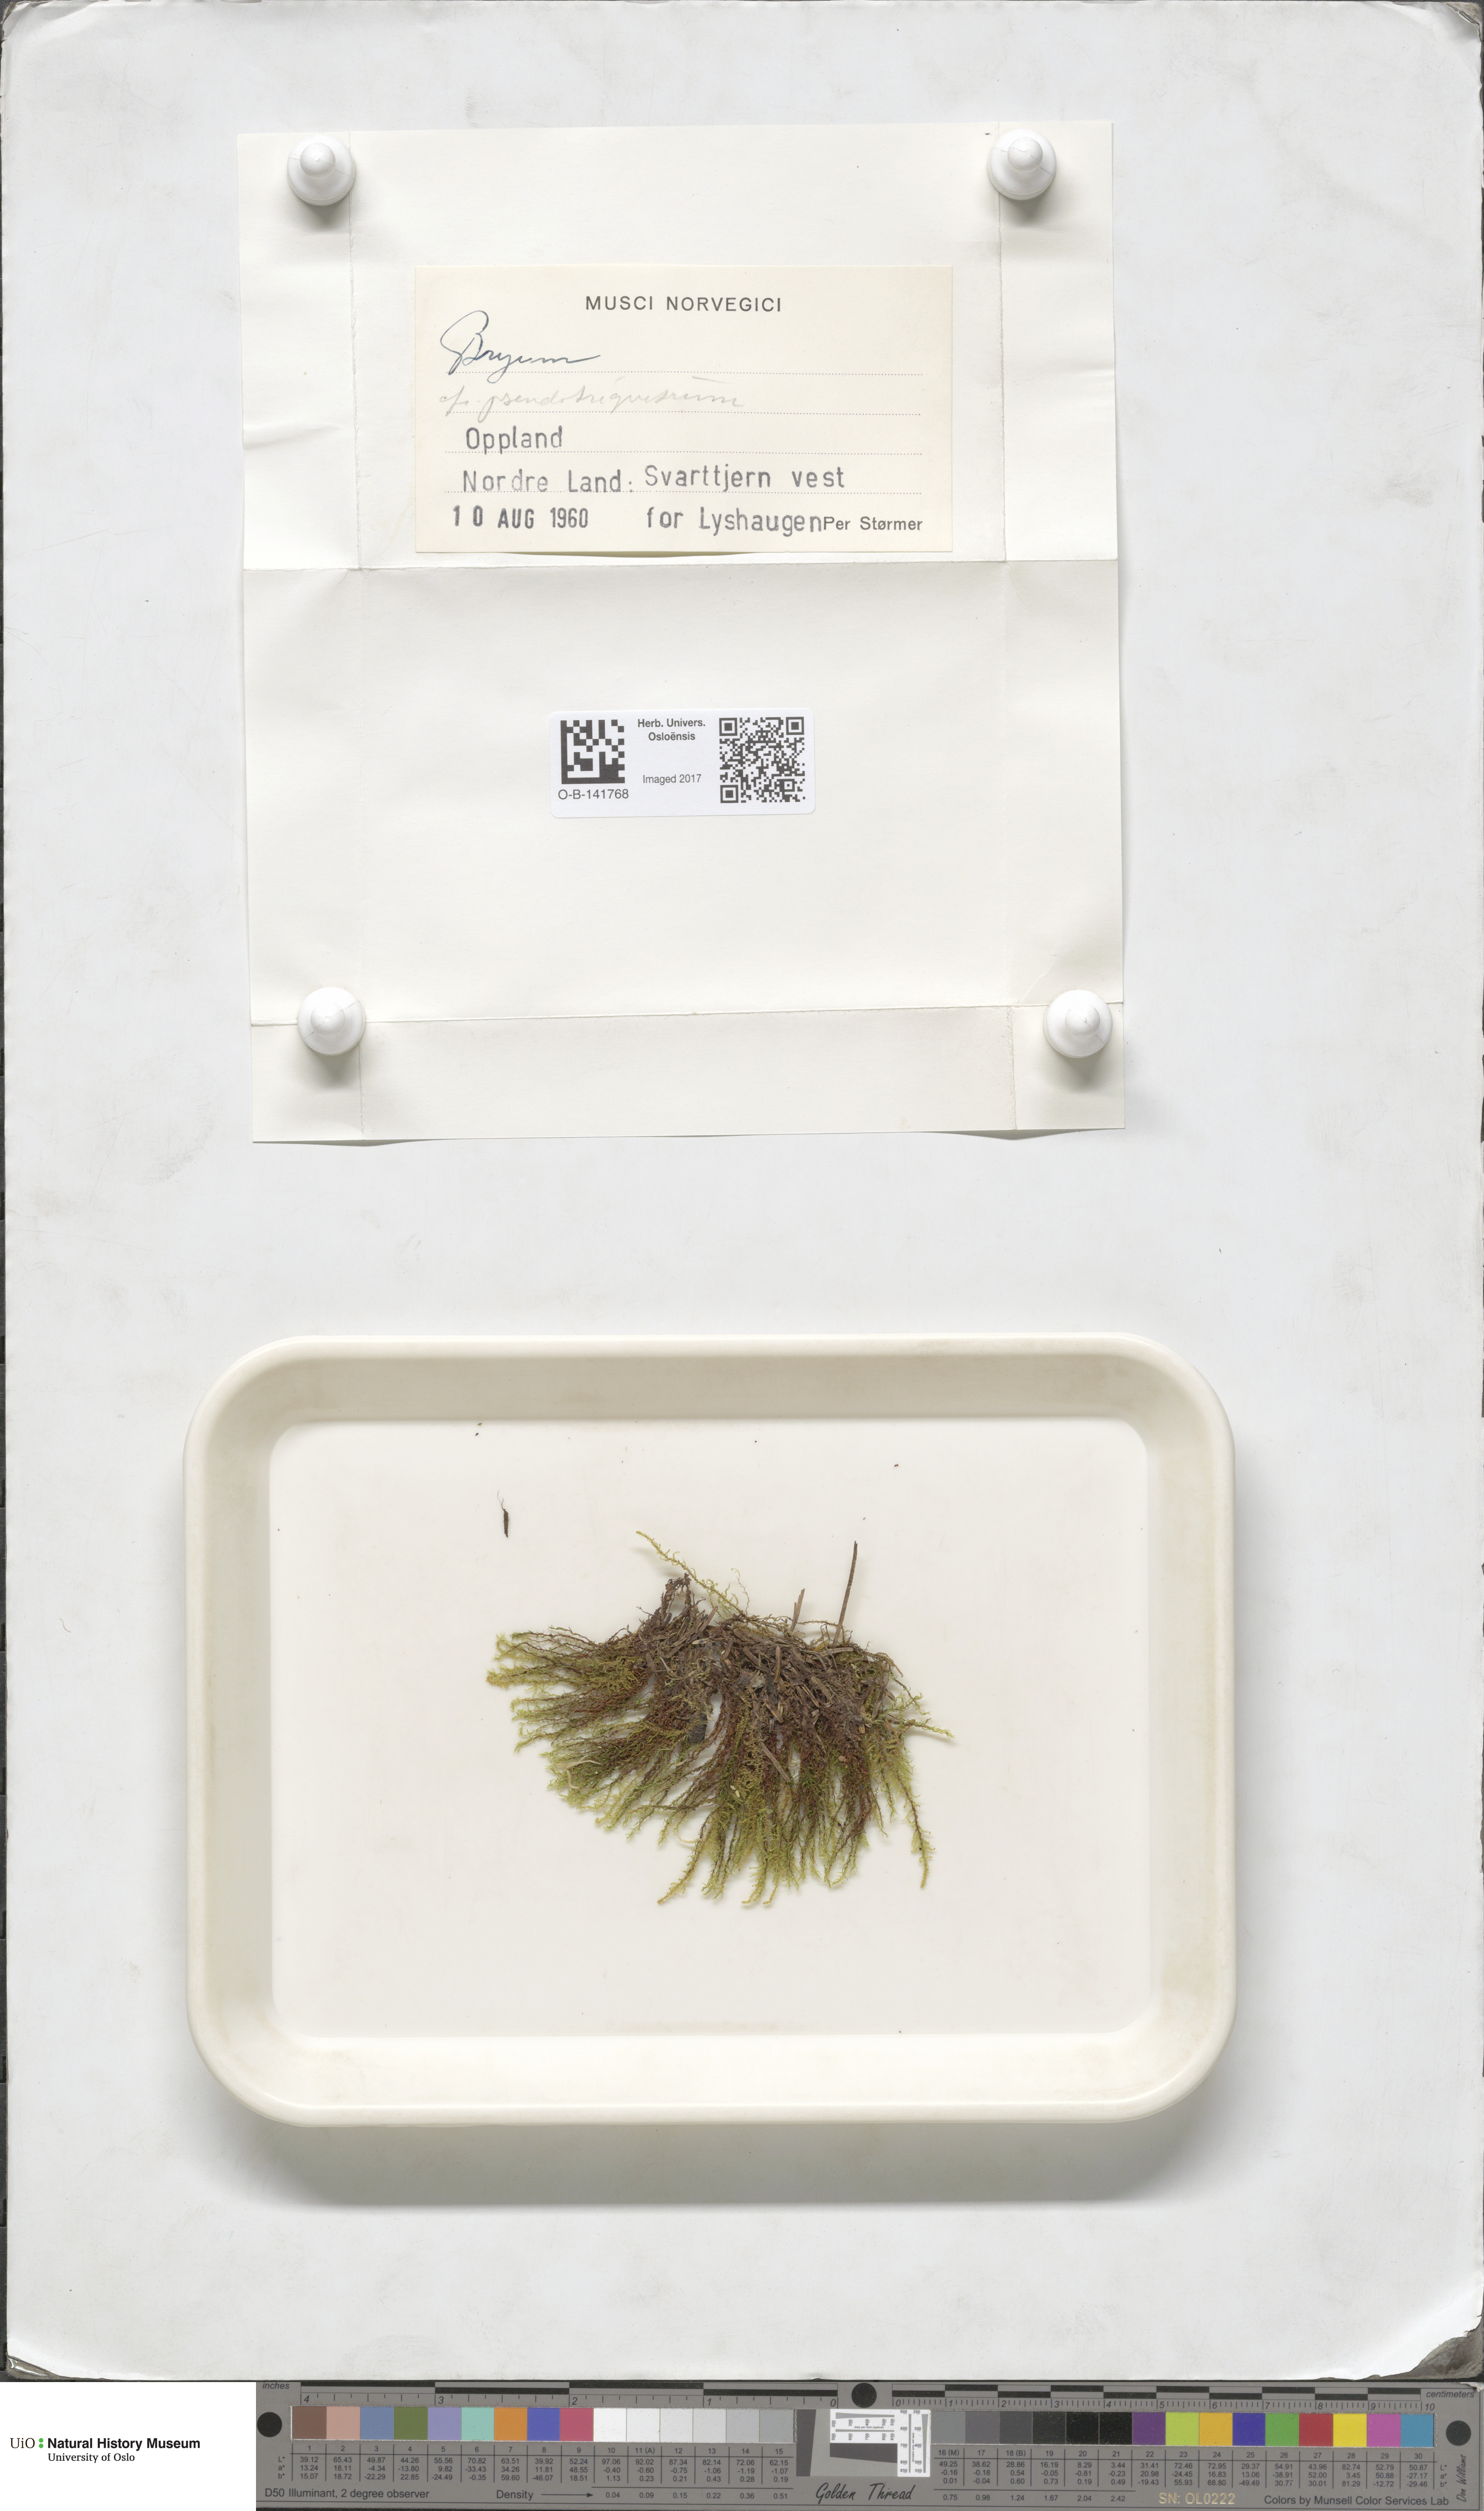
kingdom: Plantae
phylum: Bryophyta
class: Bryopsida
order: Bryales
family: Bryaceae
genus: Ptychostomum
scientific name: Ptychostomum pseudotriquetrum
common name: Long-leaved thread moss
